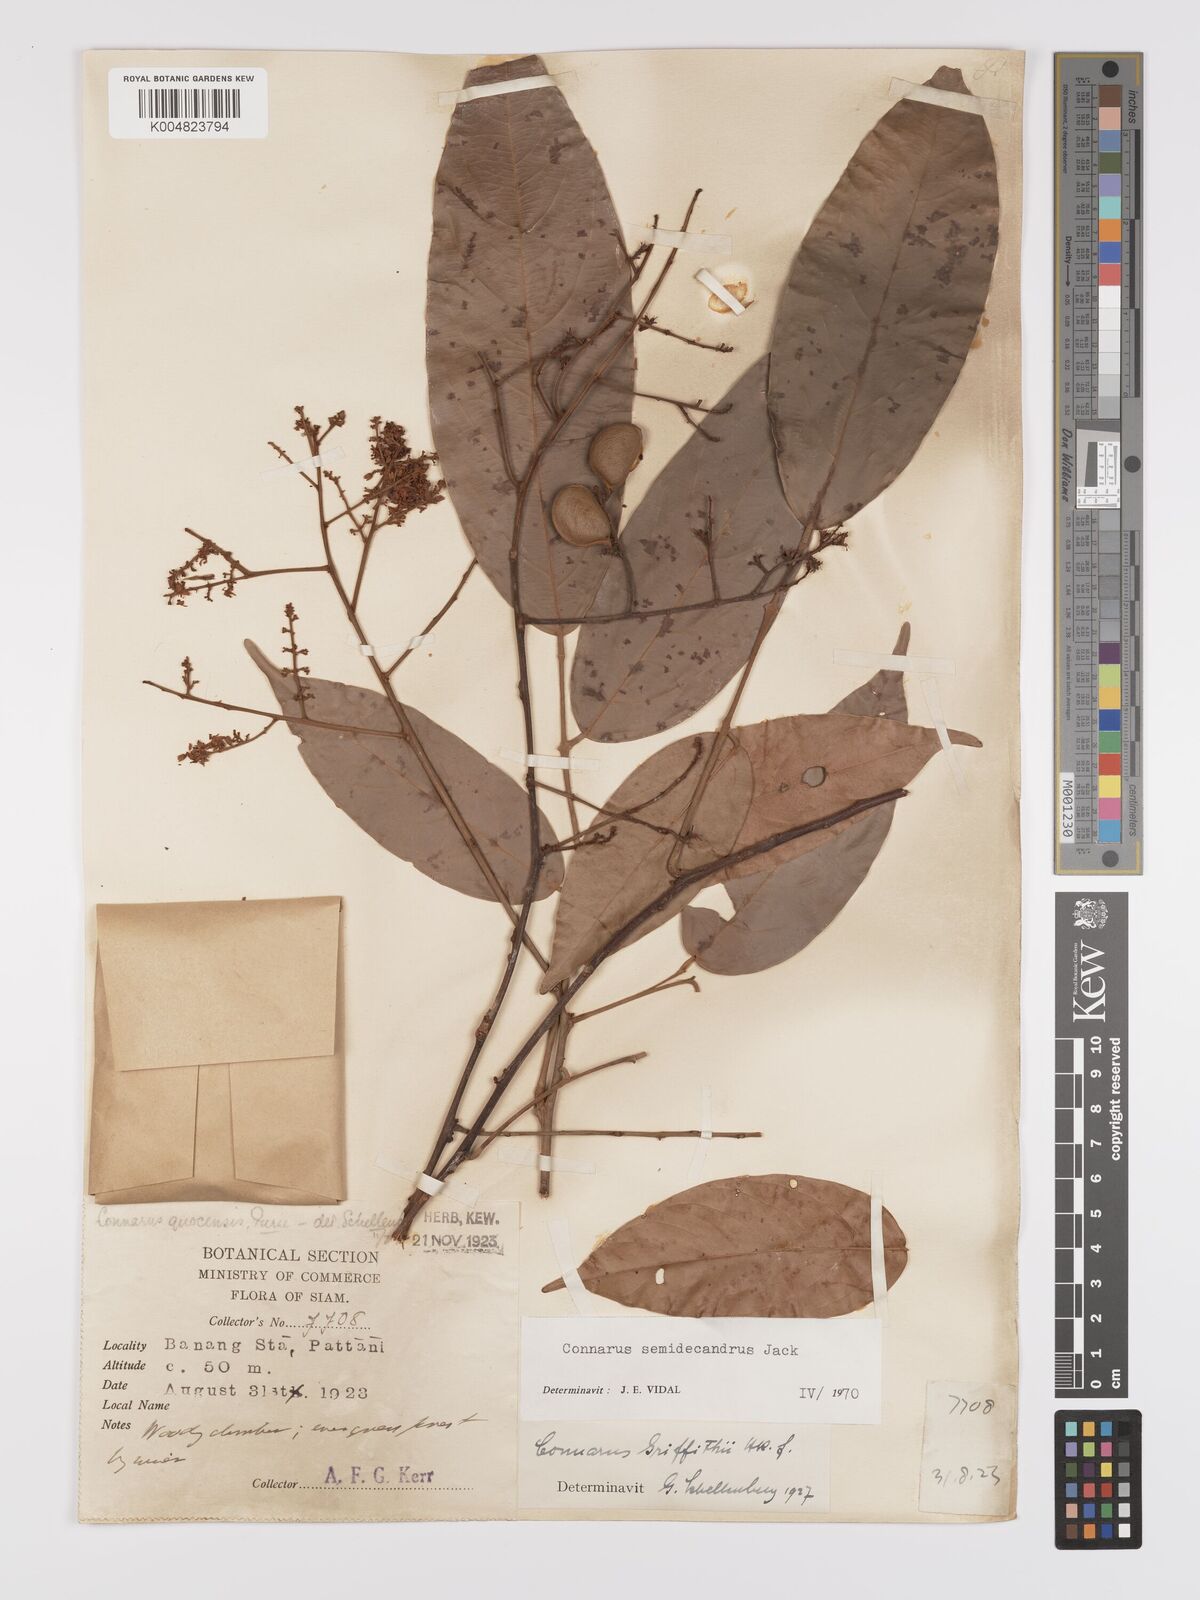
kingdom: Plantae
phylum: Tracheophyta
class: Magnoliopsida
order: Oxalidales
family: Connaraceae
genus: Connarus
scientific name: Connarus semidecandrus
